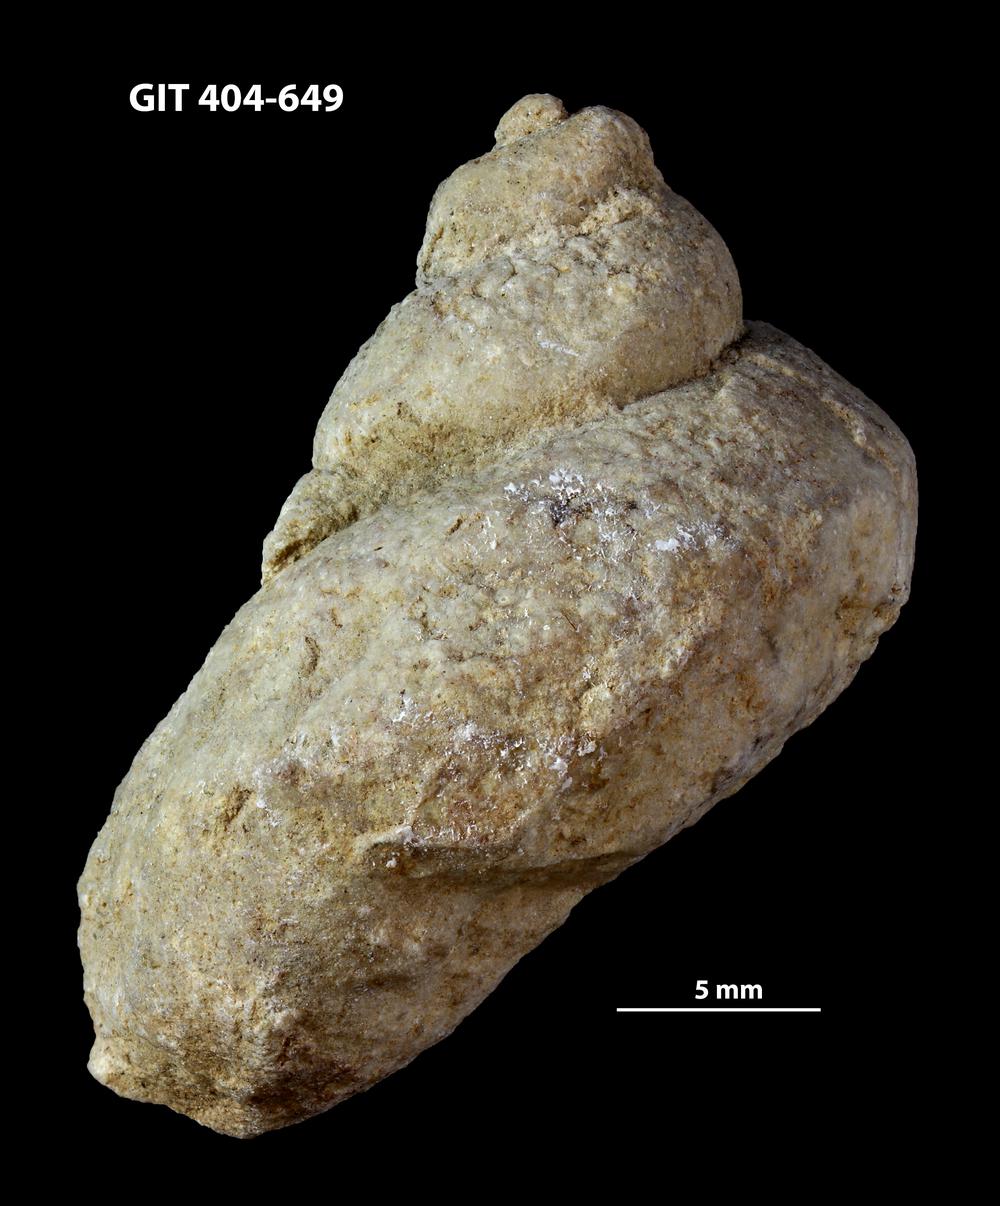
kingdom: Animalia
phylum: Mollusca
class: Gastropoda
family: Lophospiridae
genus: Lophospira
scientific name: Lophospira
